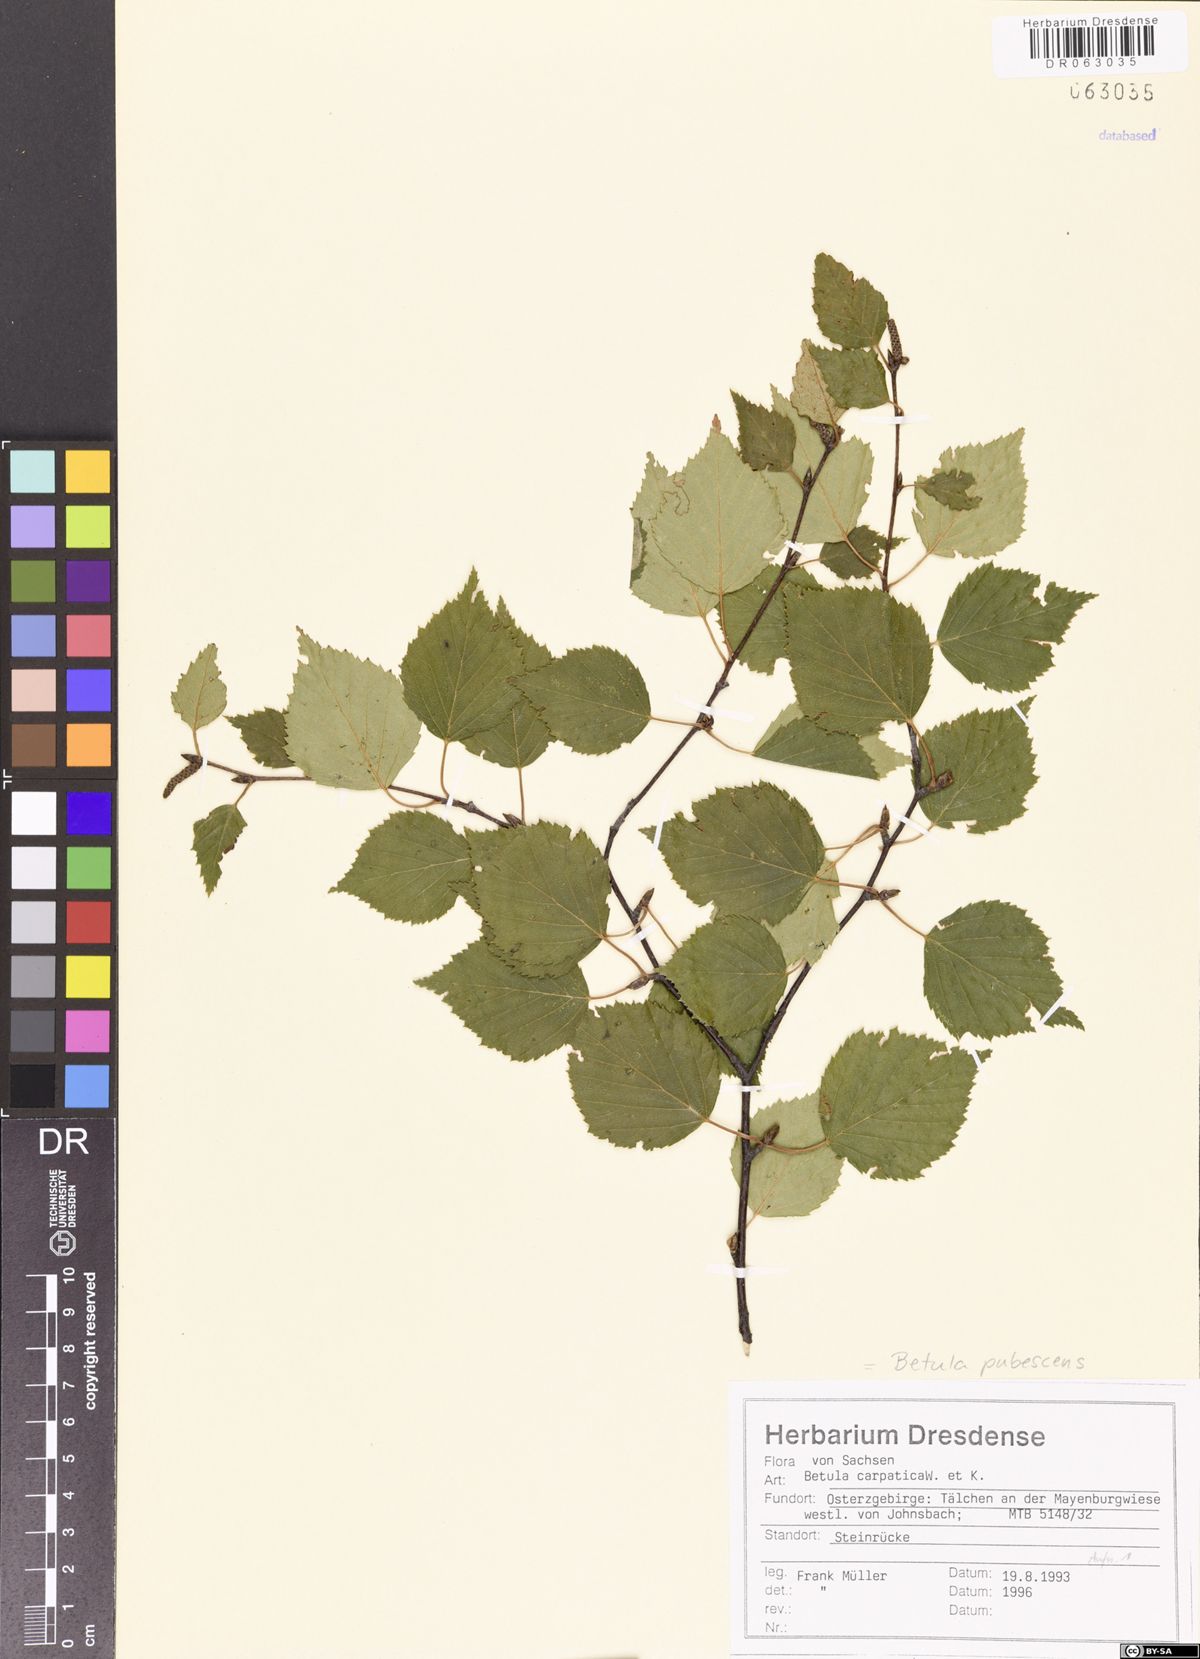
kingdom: Plantae
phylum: Tracheophyta
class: Magnoliopsida
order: Fagales
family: Betulaceae
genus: Betula
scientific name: Betula pubescens
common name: Downy birch
